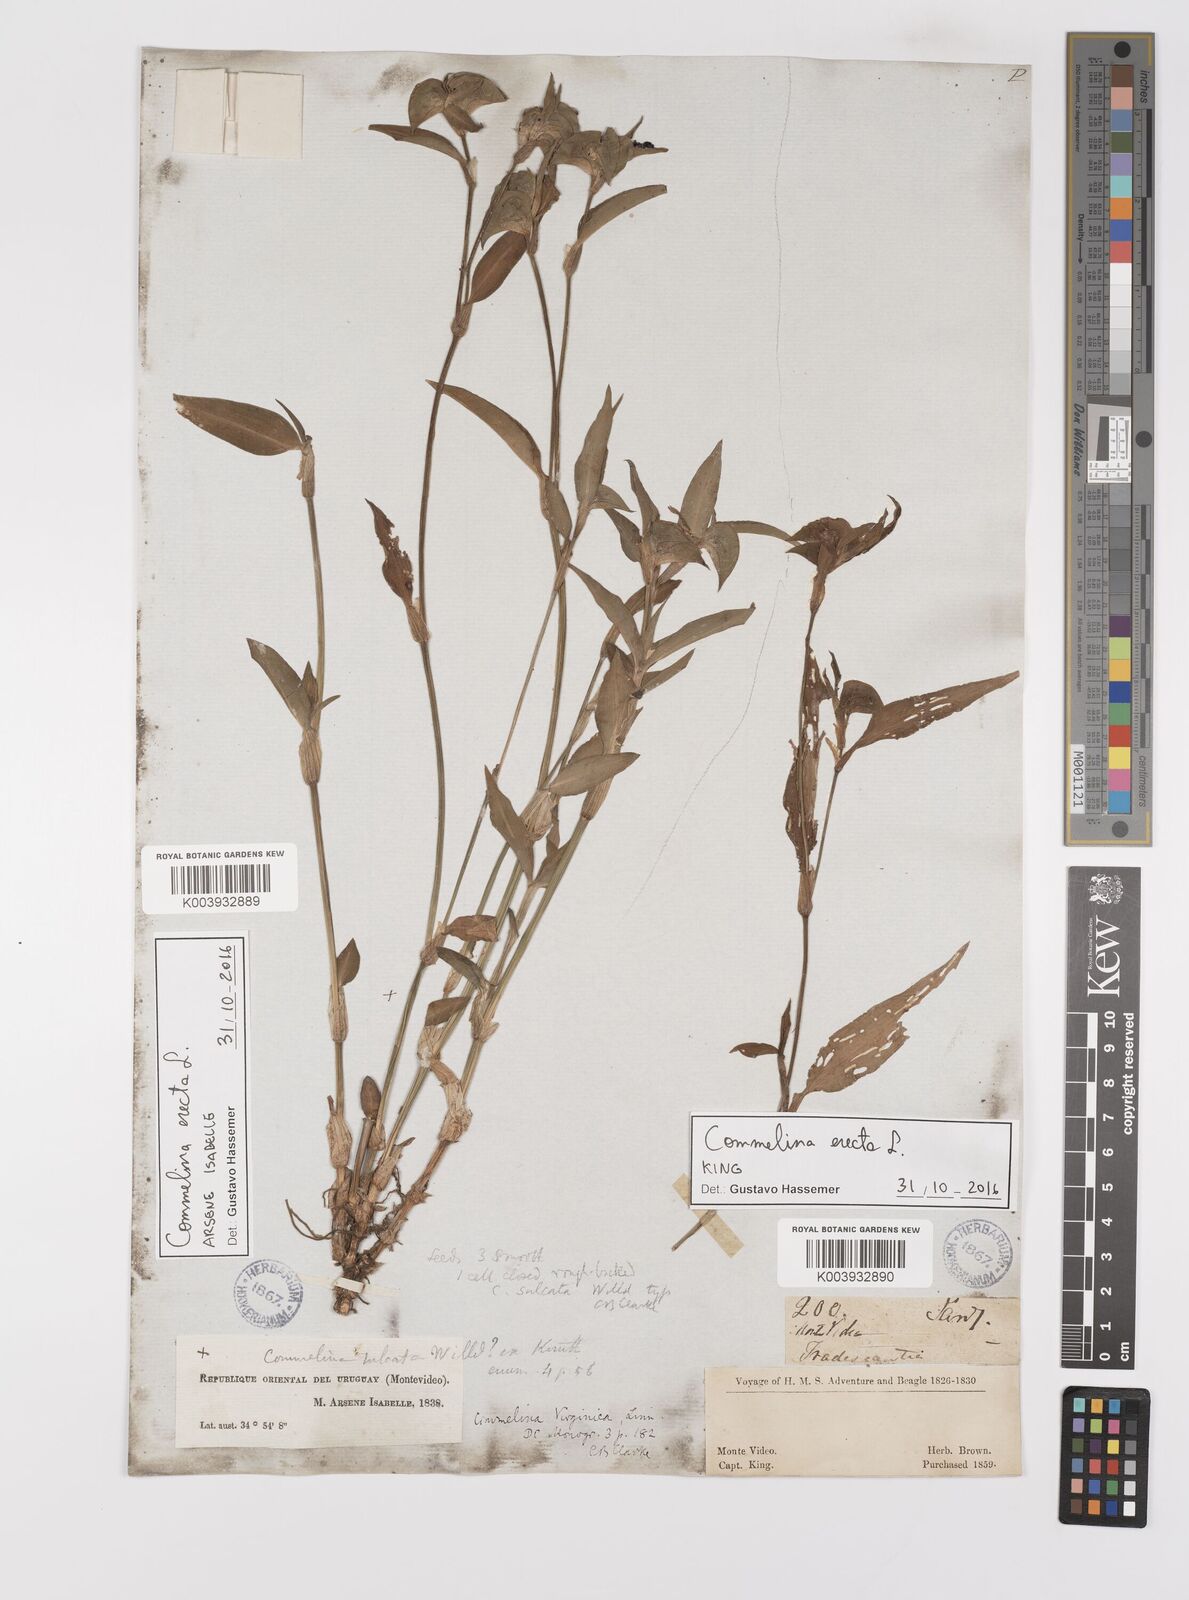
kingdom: Plantae
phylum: Tracheophyta
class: Liliopsida
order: Commelinales
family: Commelinaceae
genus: Commelina
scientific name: Commelina erecta
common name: Blousel blommetjie
